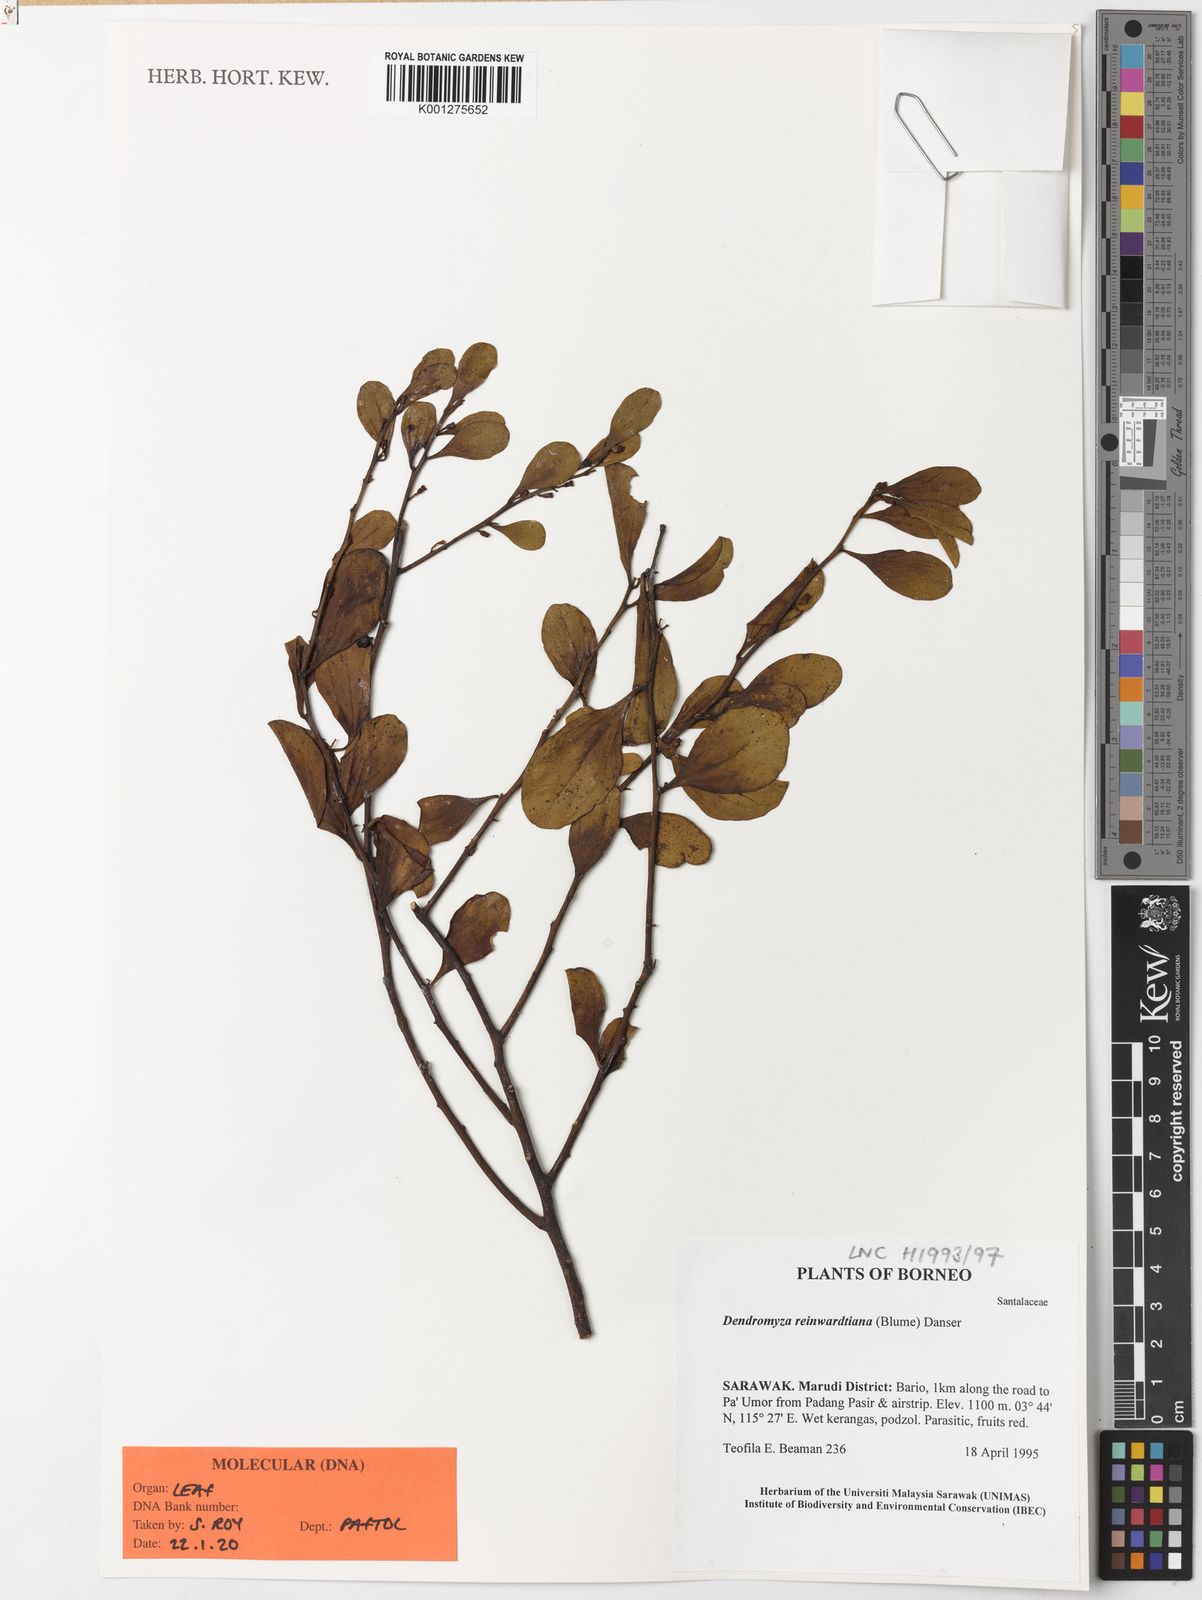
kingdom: Plantae
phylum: Tracheophyta
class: Magnoliopsida
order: Santalales
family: Amphorogynaceae
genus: Dendromyza
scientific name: Dendromyza reinwardtiana
